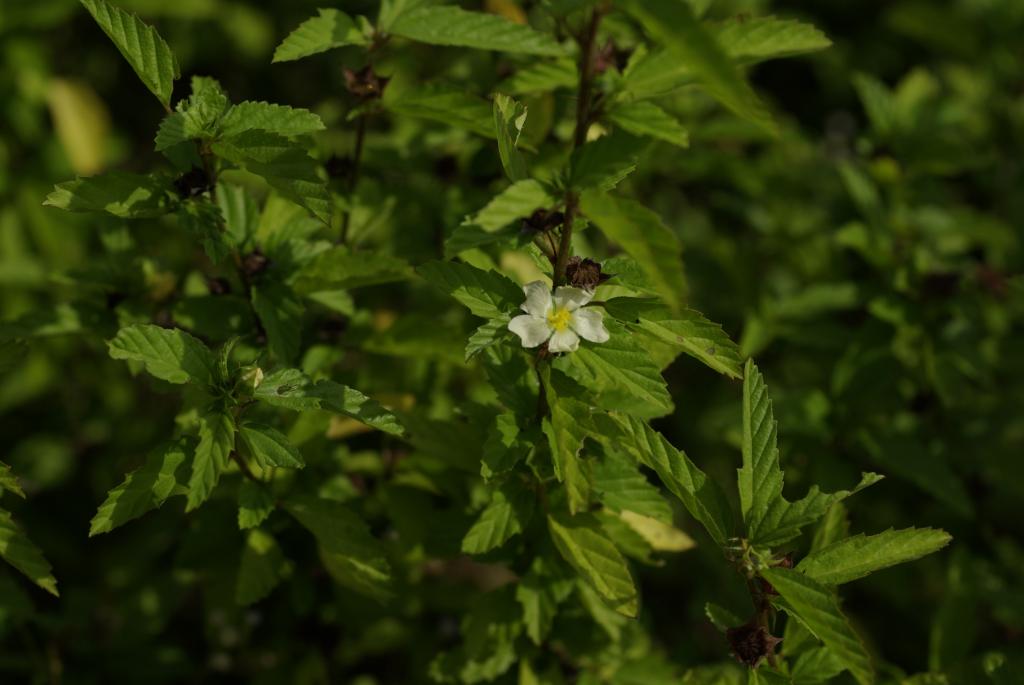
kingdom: Plantae
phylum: Tracheophyta
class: Magnoliopsida
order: Malvales
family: Malvaceae
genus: Malvastrum
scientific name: Malvastrum coromandelianum
